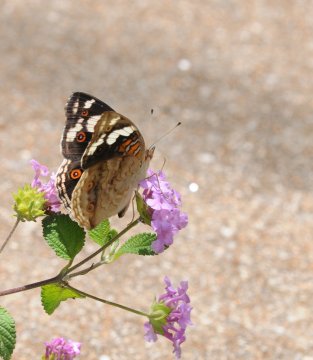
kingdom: Animalia
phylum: Arthropoda
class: Insecta
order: Lepidoptera
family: Nymphalidae
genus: Junonia
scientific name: Junonia oenone
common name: Dark blue pansy
